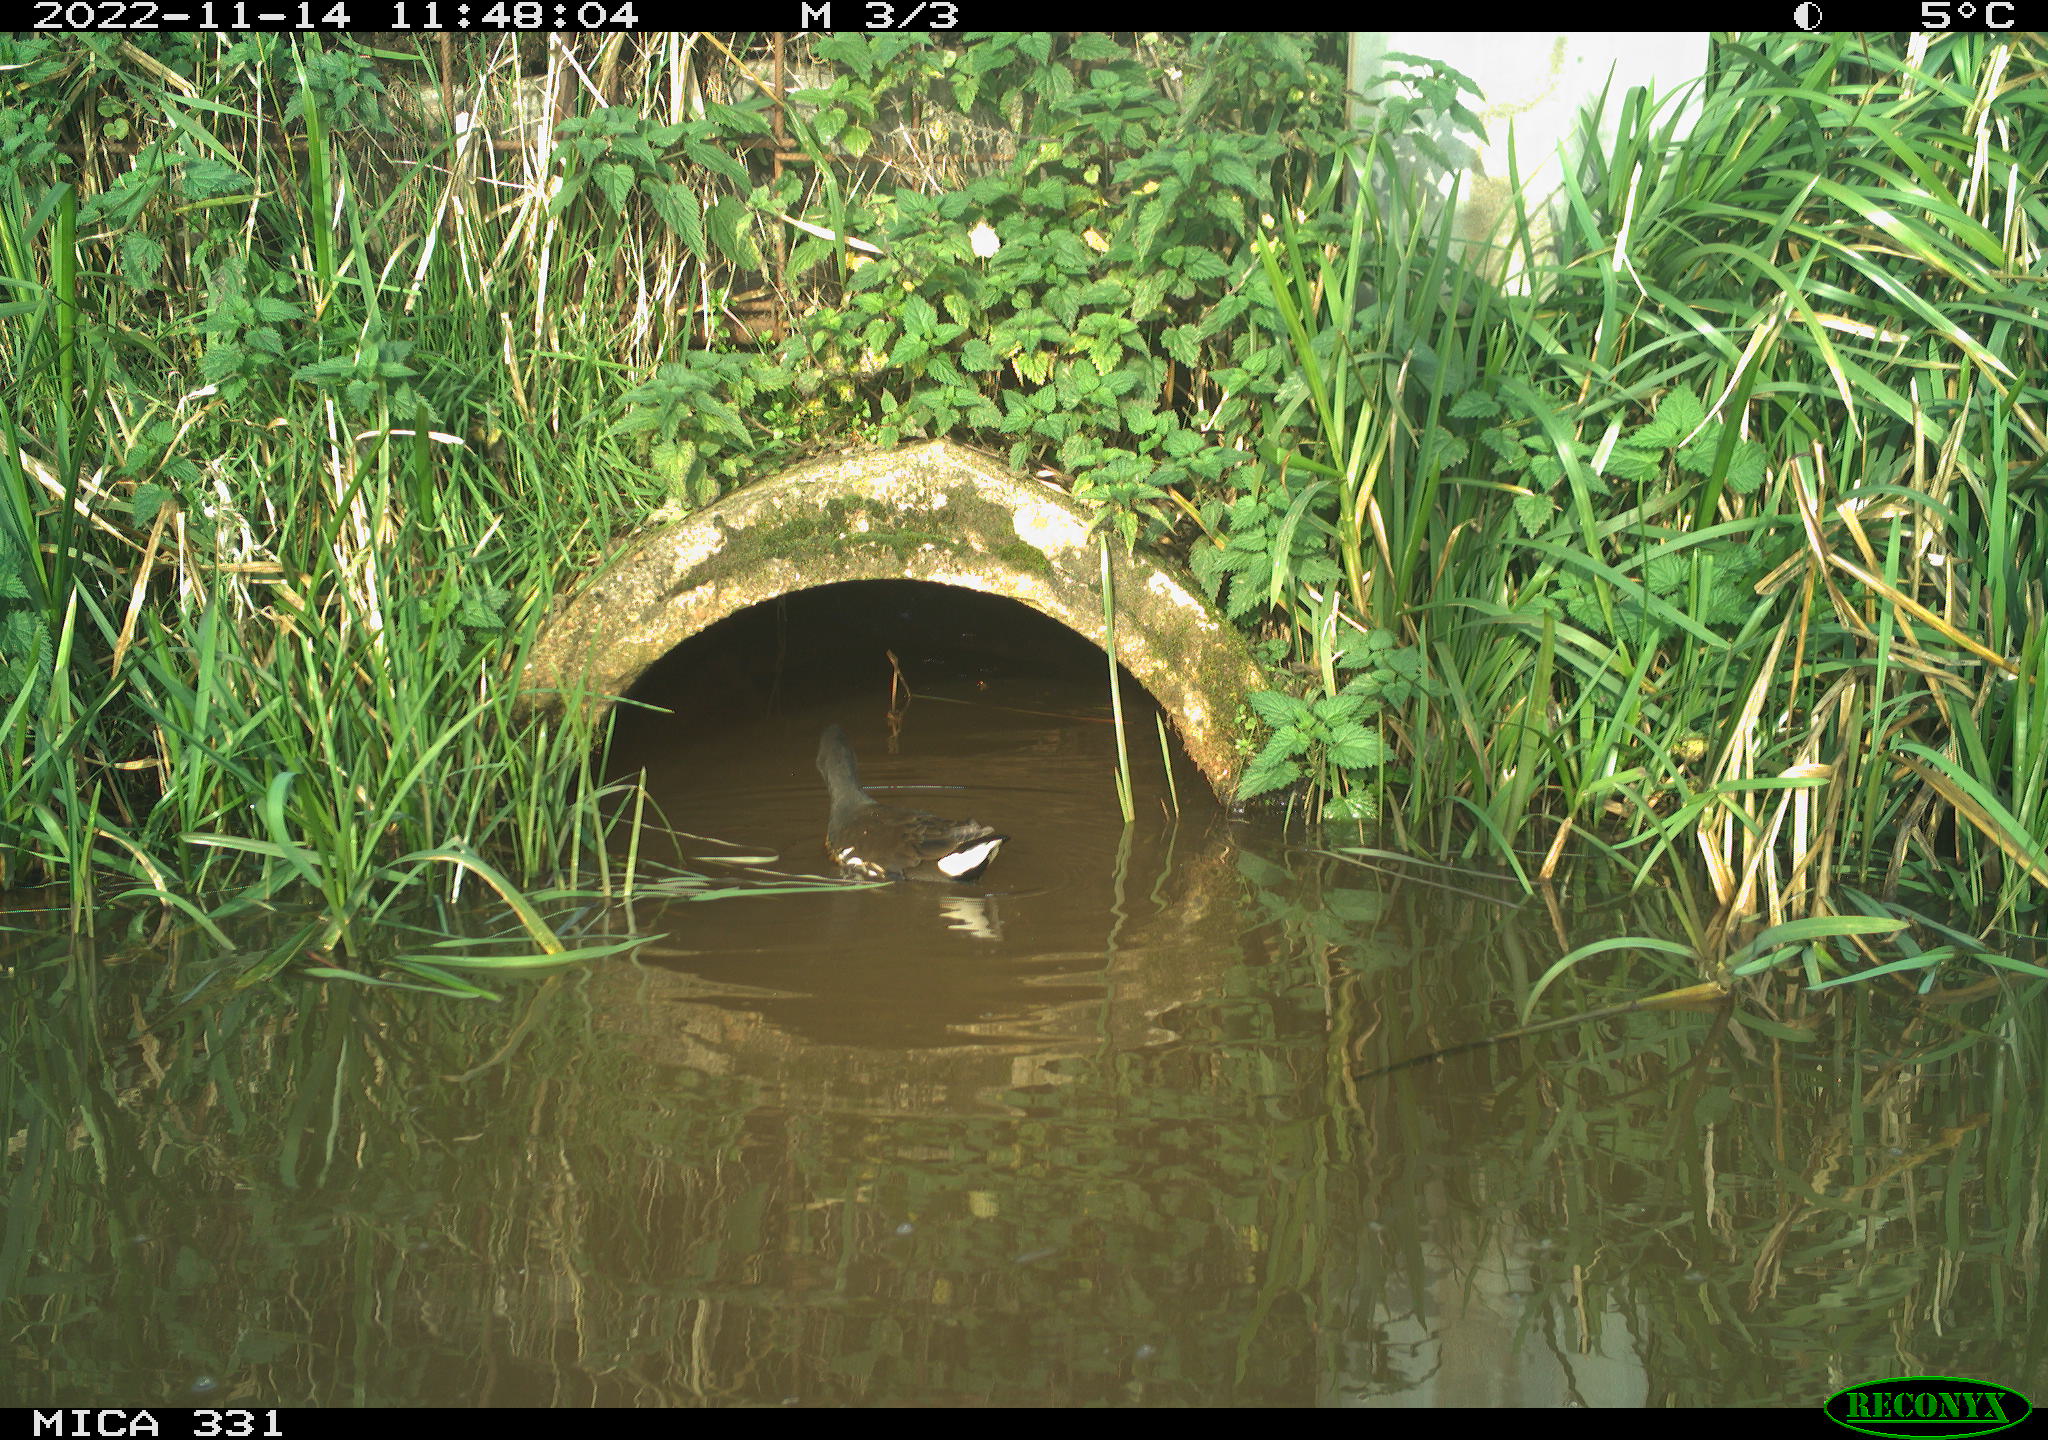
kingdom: Animalia
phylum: Chordata
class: Aves
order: Gruiformes
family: Rallidae
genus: Gallinula
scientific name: Gallinula chloropus
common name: Common moorhen
